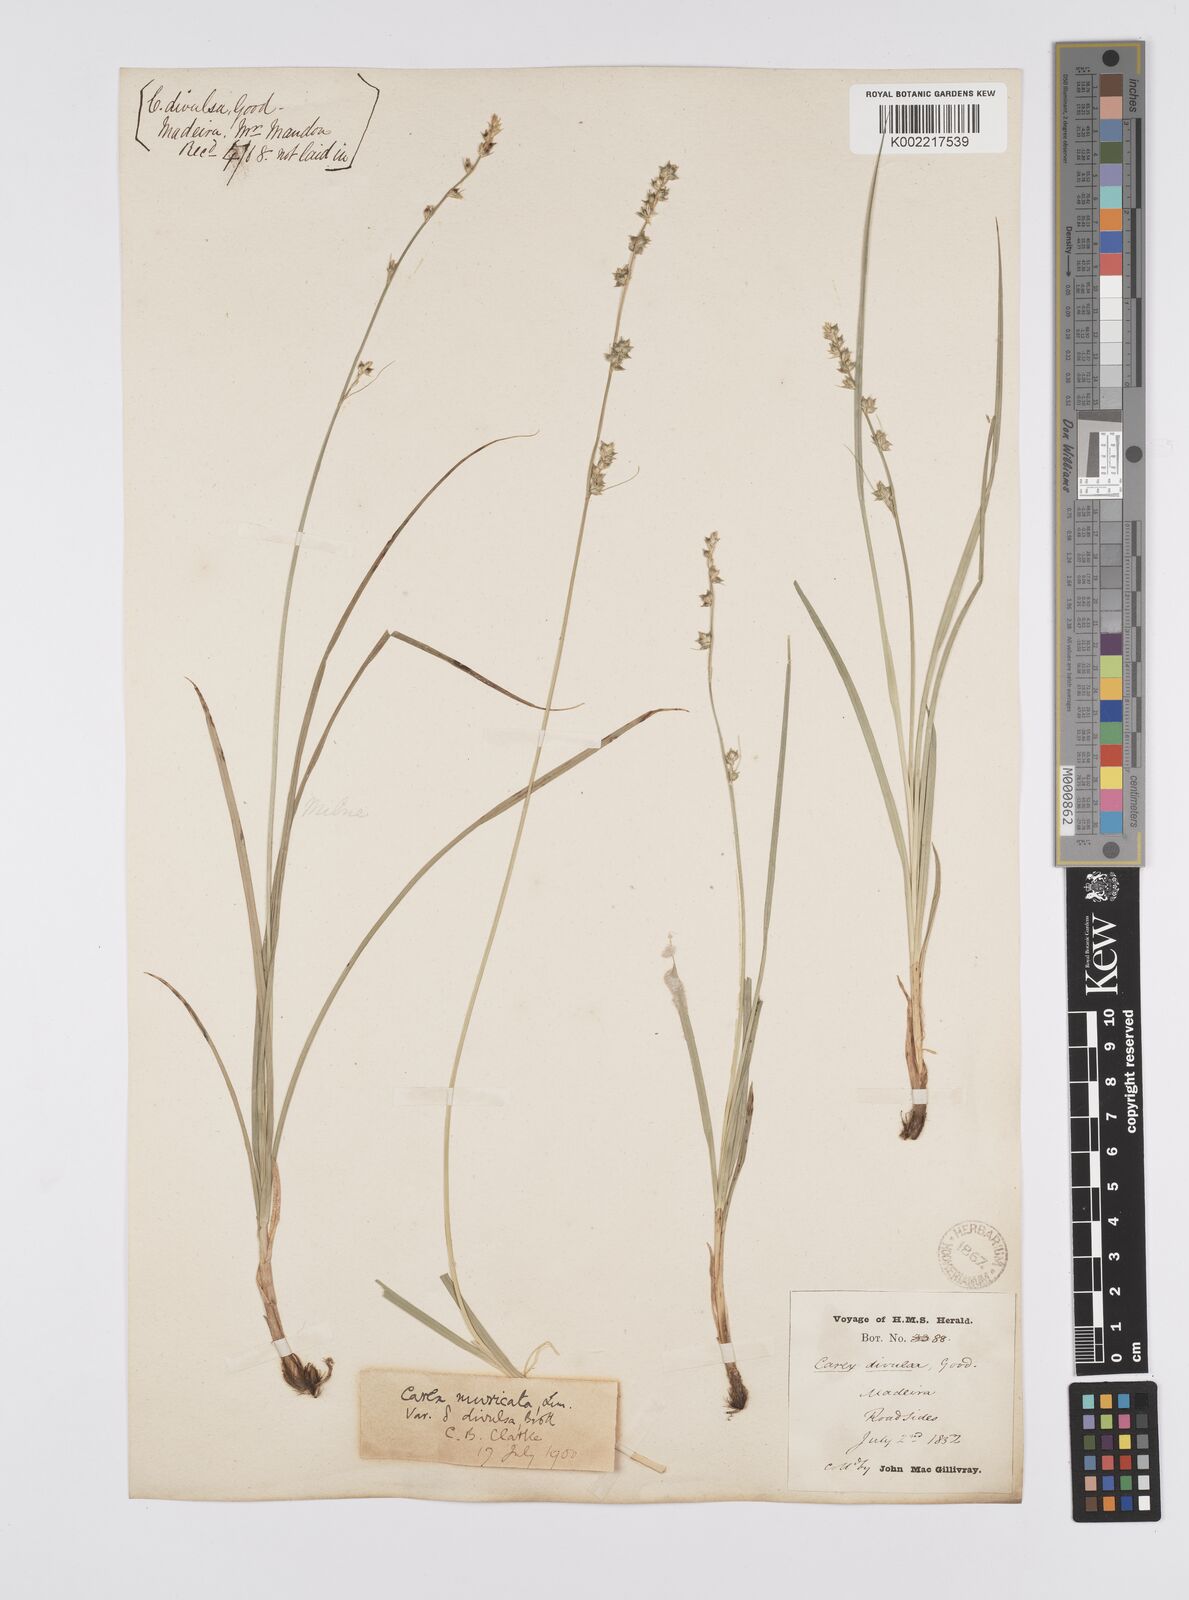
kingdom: Plantae
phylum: Tracheophyta
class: Liliopsida
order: Poales
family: Cyperaceae
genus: Carex
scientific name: Carex divulsa
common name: Grassland sedge
